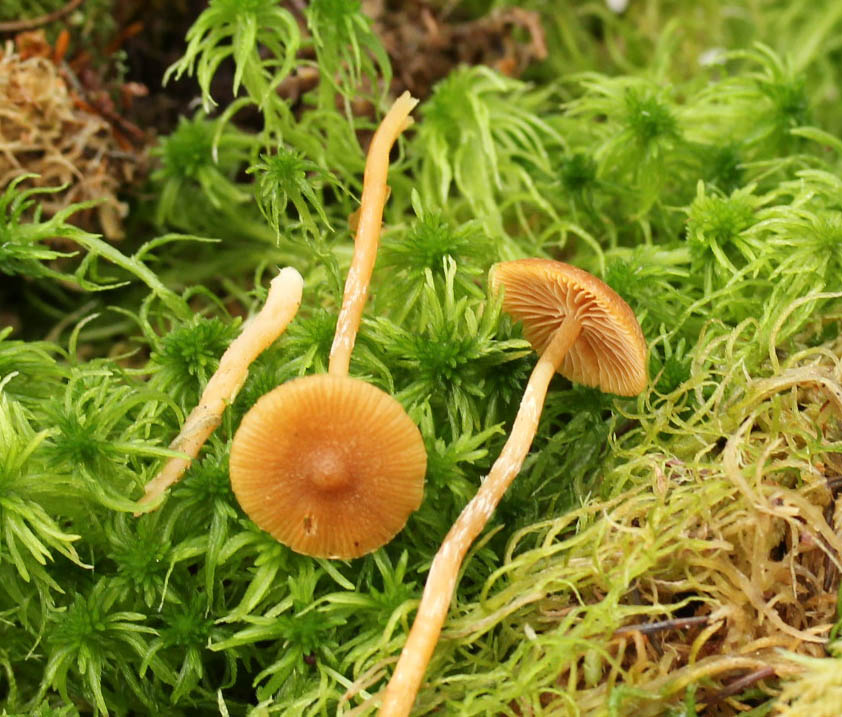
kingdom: Fungi
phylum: Basidiomycota
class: Agaricomycetes
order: Agaricales
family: Hymenogastraceae
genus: Galerina
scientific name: Galerina paludosa
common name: mose-hjelmhat
